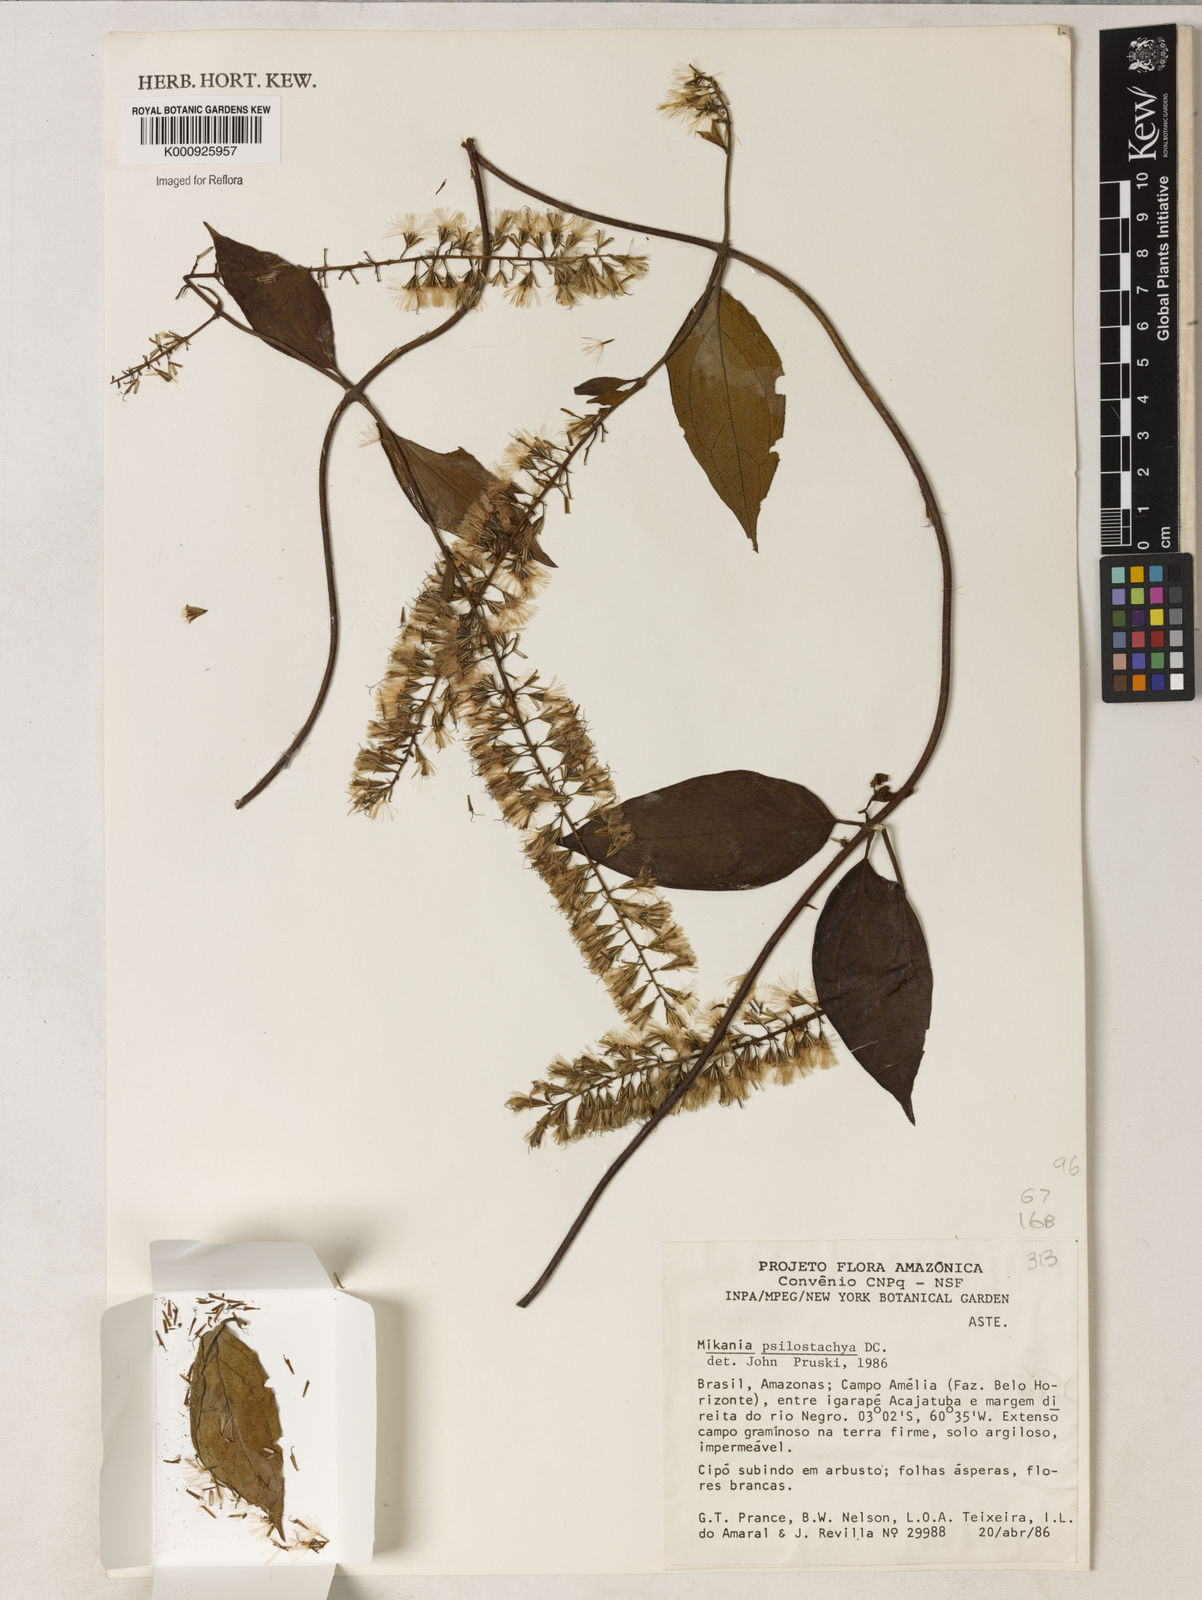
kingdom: Plantae
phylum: Tracheophyta
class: Magnoliopsida
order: Asterales
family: Asteraceae
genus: Mikania
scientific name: Mikania psilostachya
